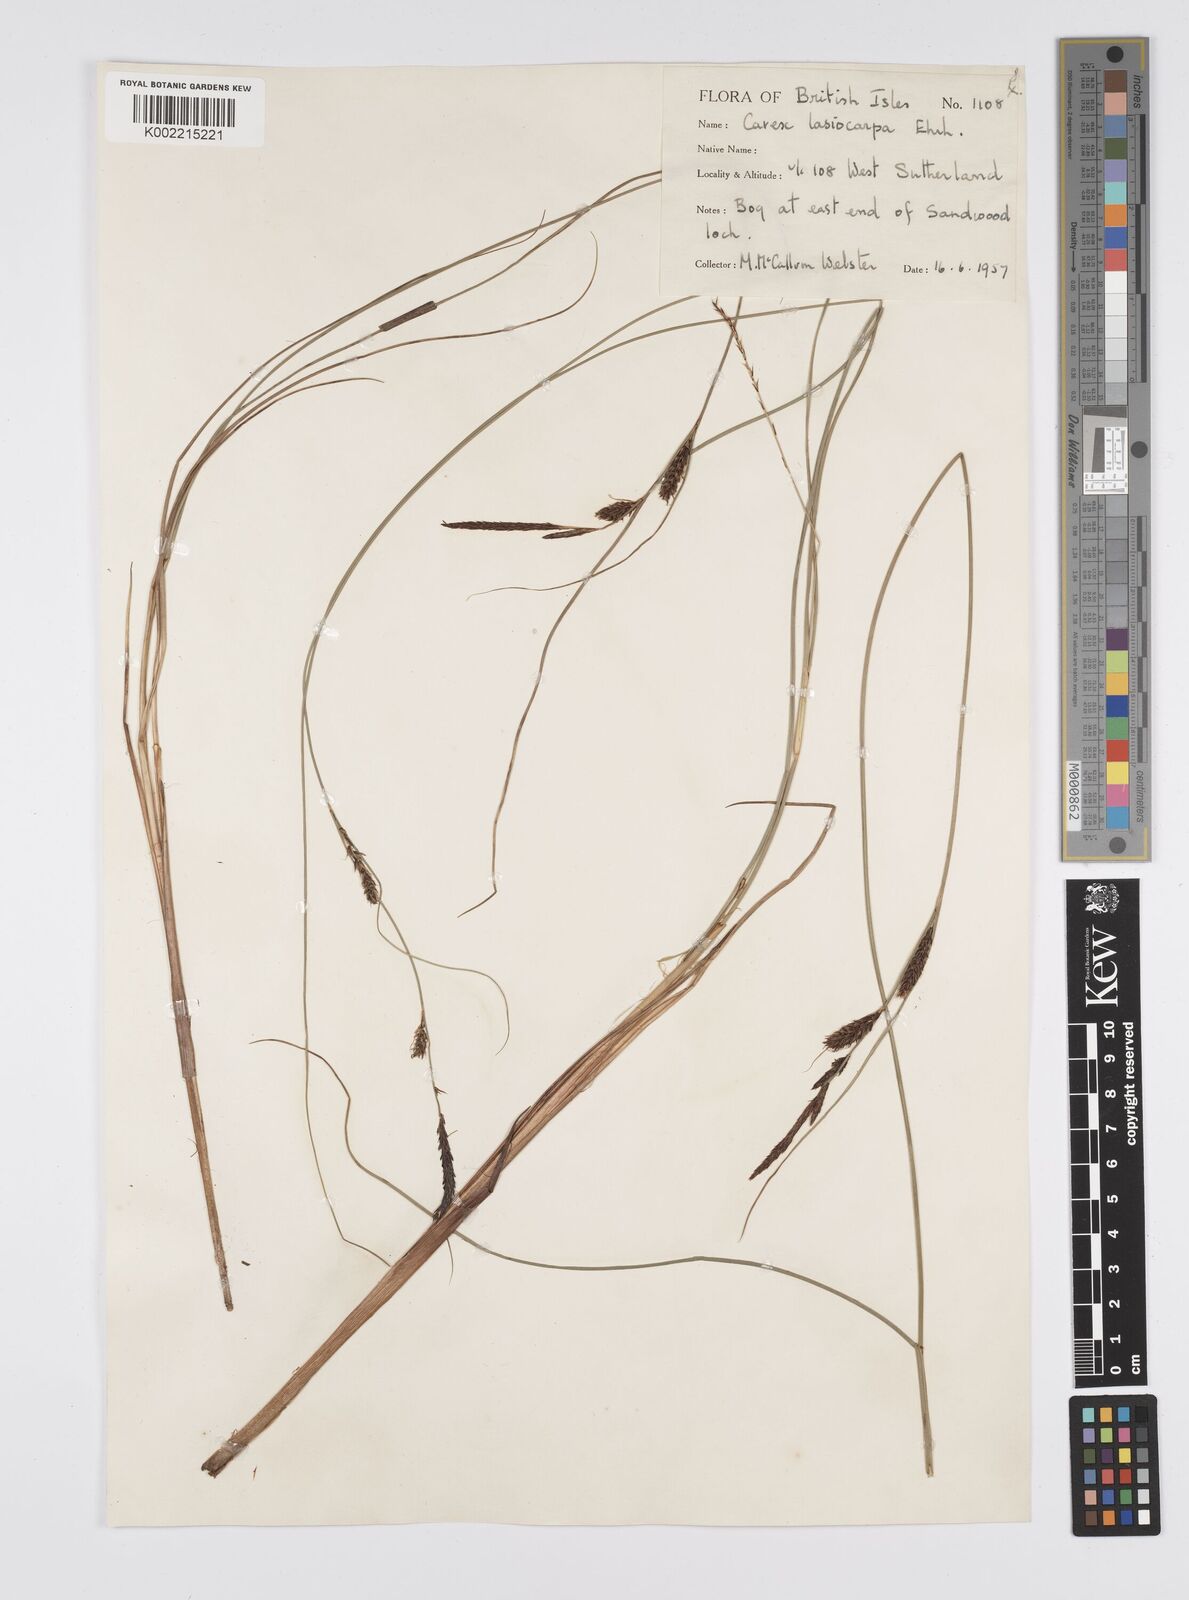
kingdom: Plantae
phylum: Tracheophyta
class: Liliopsida
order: Poales
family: Cyperaceae
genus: Carex
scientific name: Carex lasiocarpa
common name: Slender sedge
